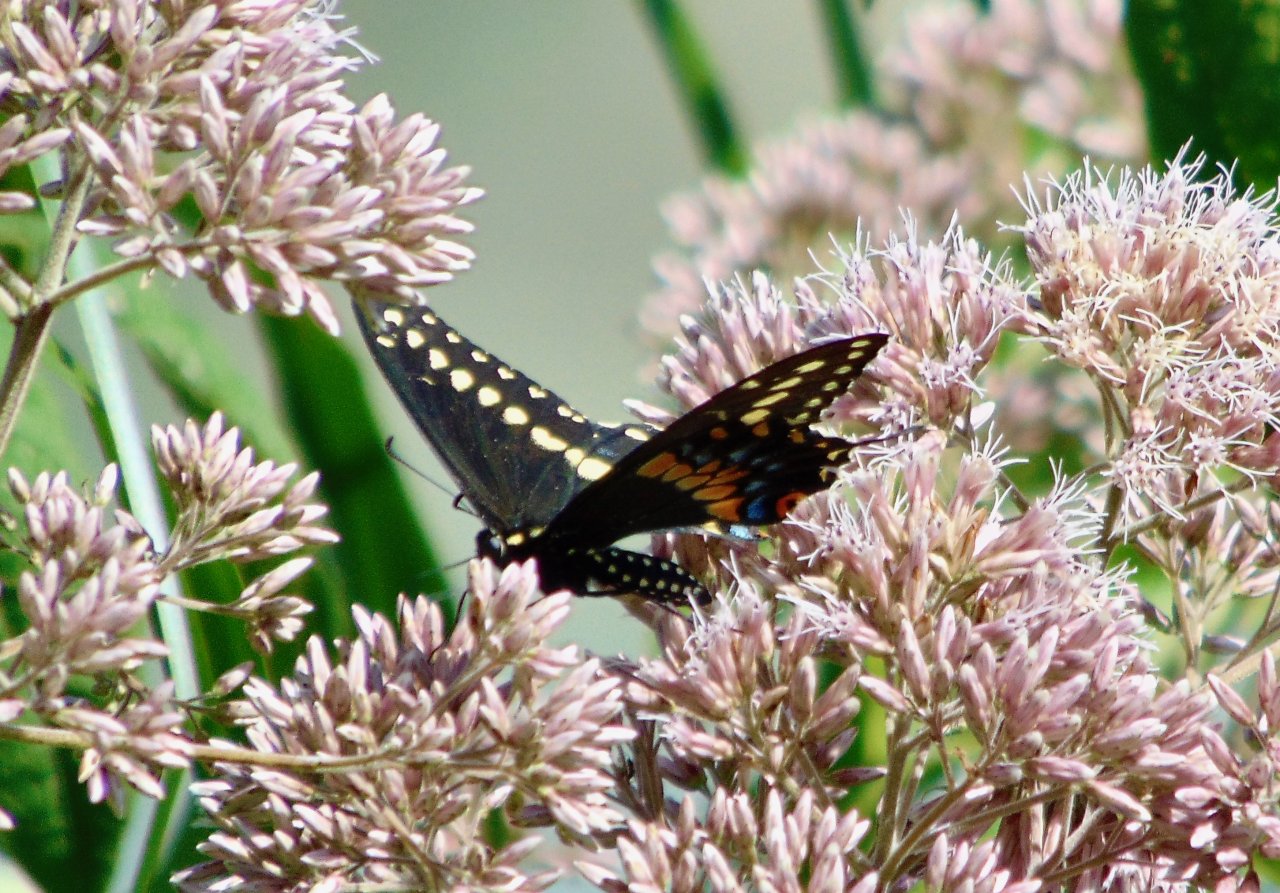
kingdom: Animalia
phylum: Arthropoda
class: Insecta
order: Lepidoptera
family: Papilionidae
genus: Papilio
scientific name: Papilio polyxenes
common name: Black Swallowtail
